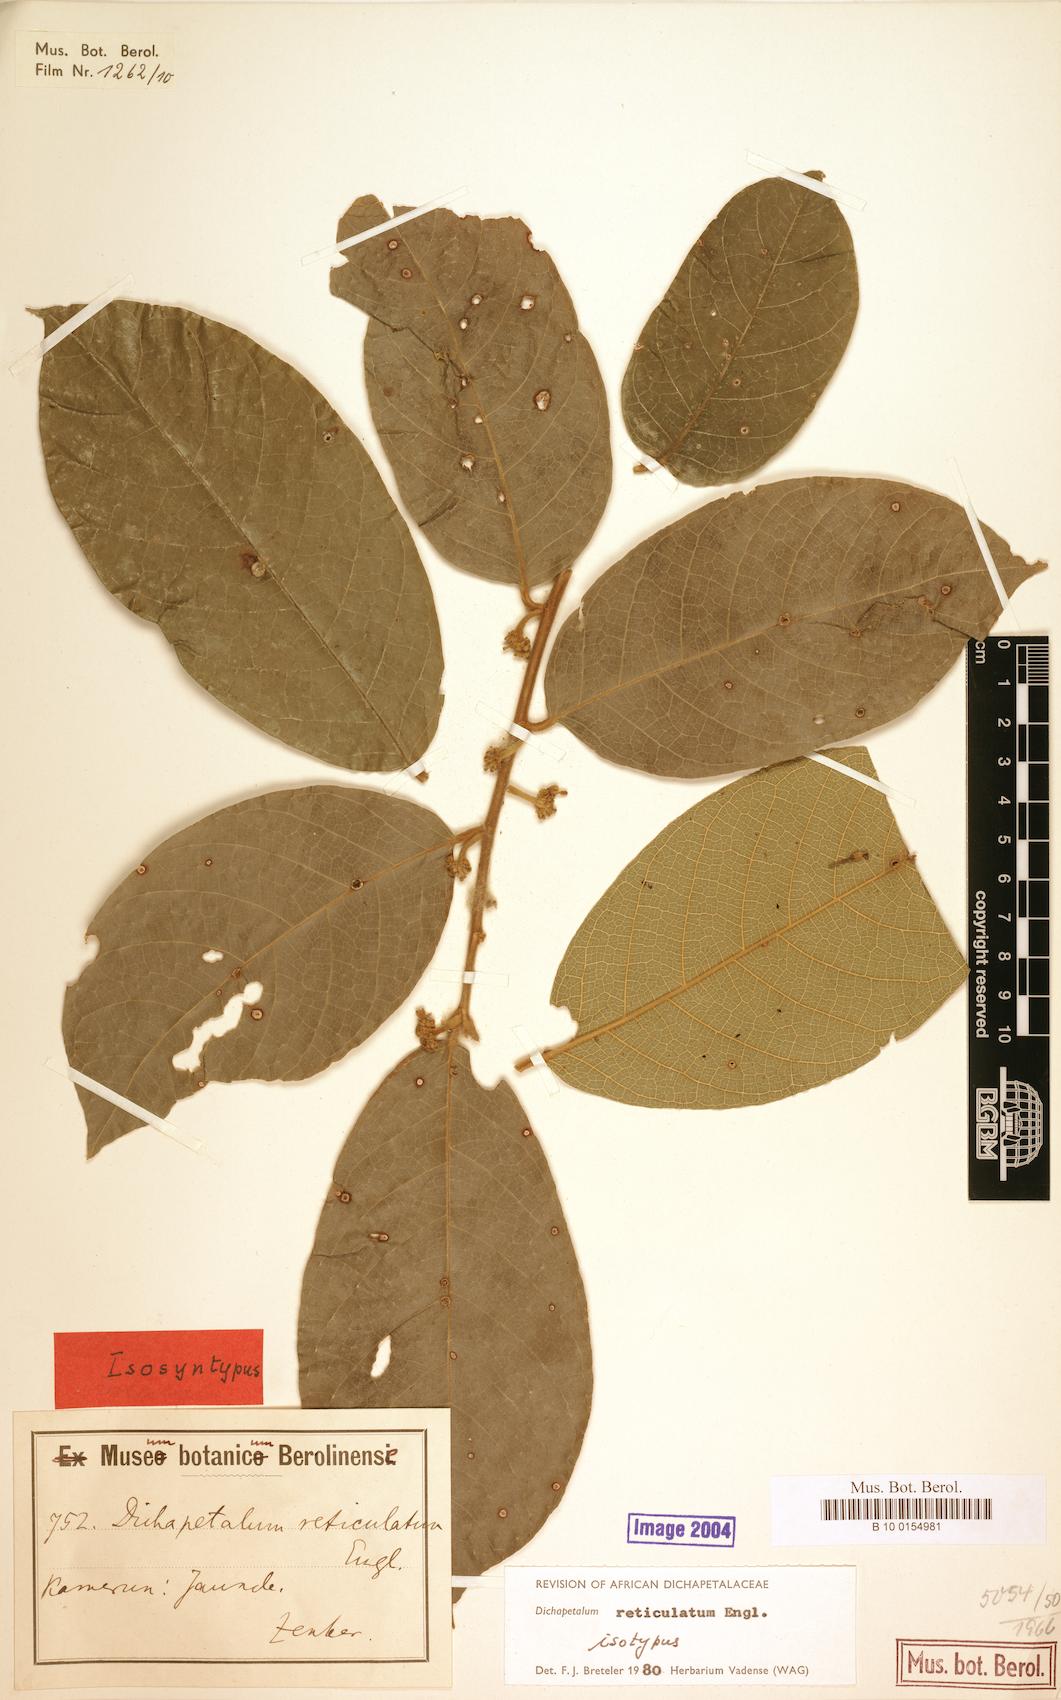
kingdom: Plantae
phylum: Tracheophyta
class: Magnoliopsida
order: Malpighiales
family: Dichapetalaceae
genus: Dichapetalum
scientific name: Dichapetalum reticulatum
